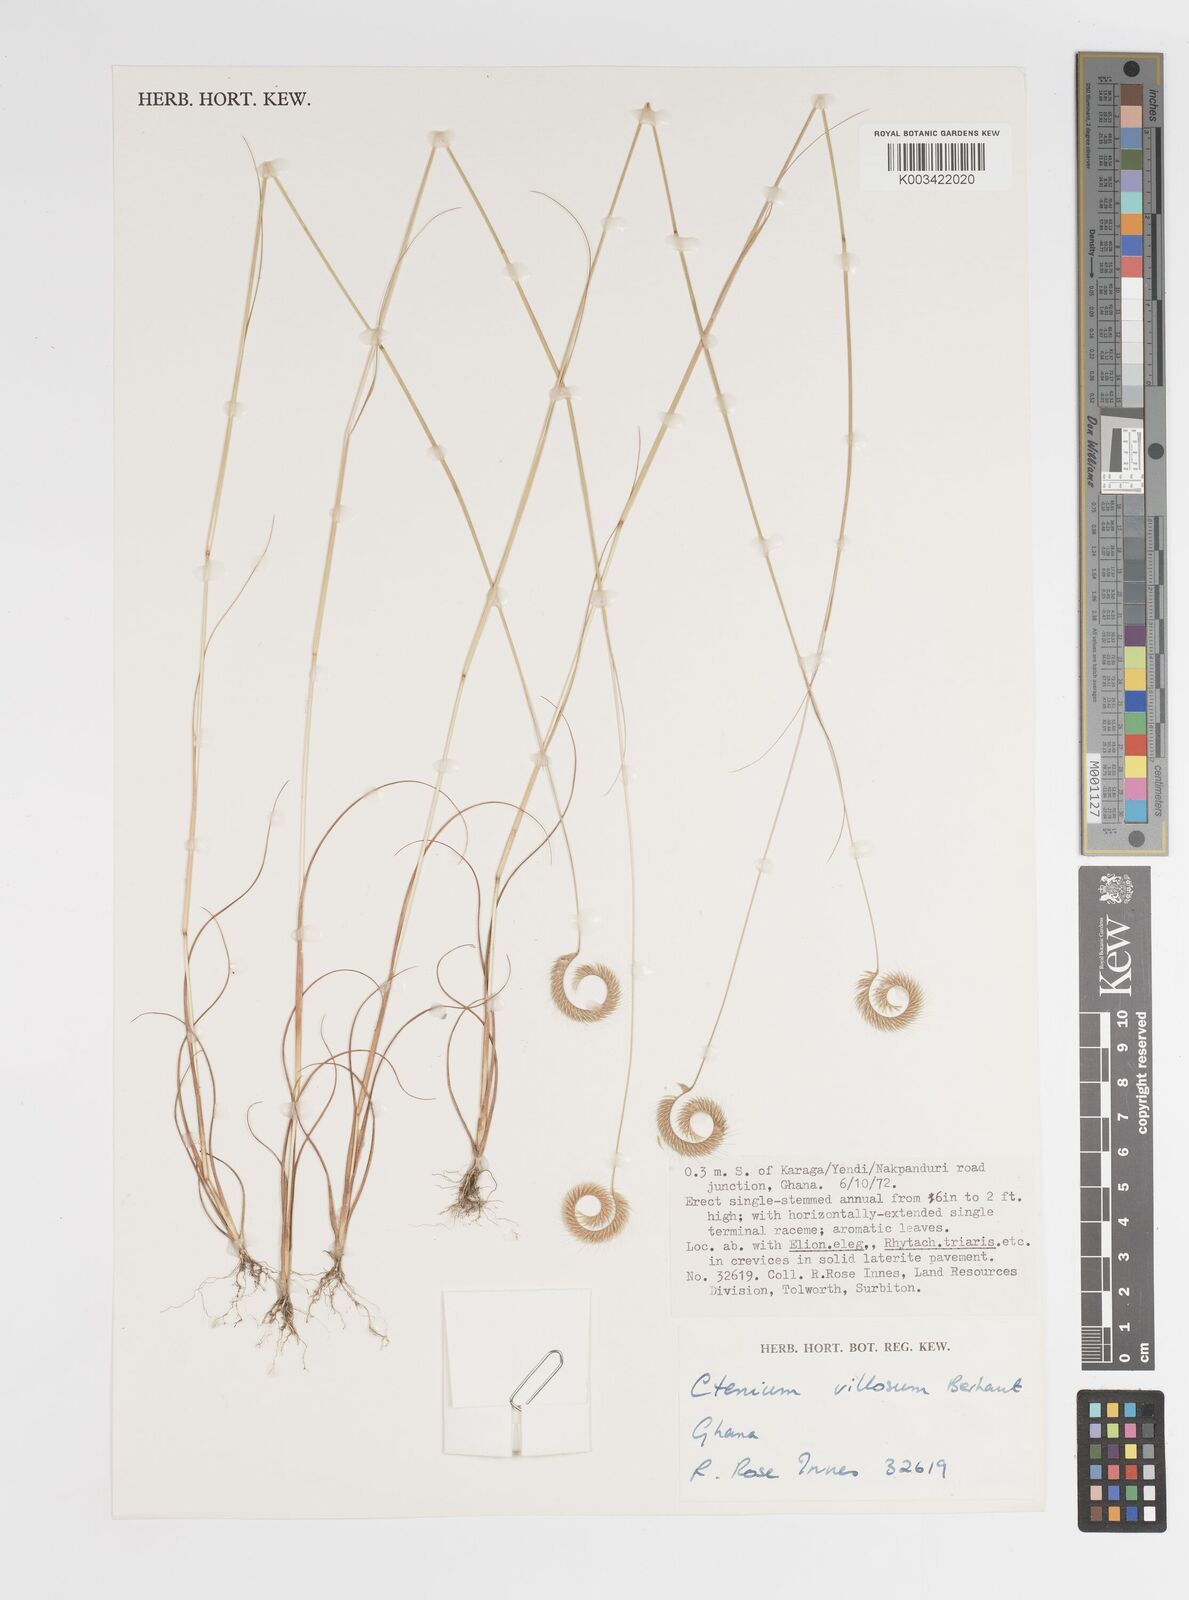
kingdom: Plantae
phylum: Tracheophyta
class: Liliopsida
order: Poales
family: Poaceae
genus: Ctenium
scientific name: Ctenium villosum
